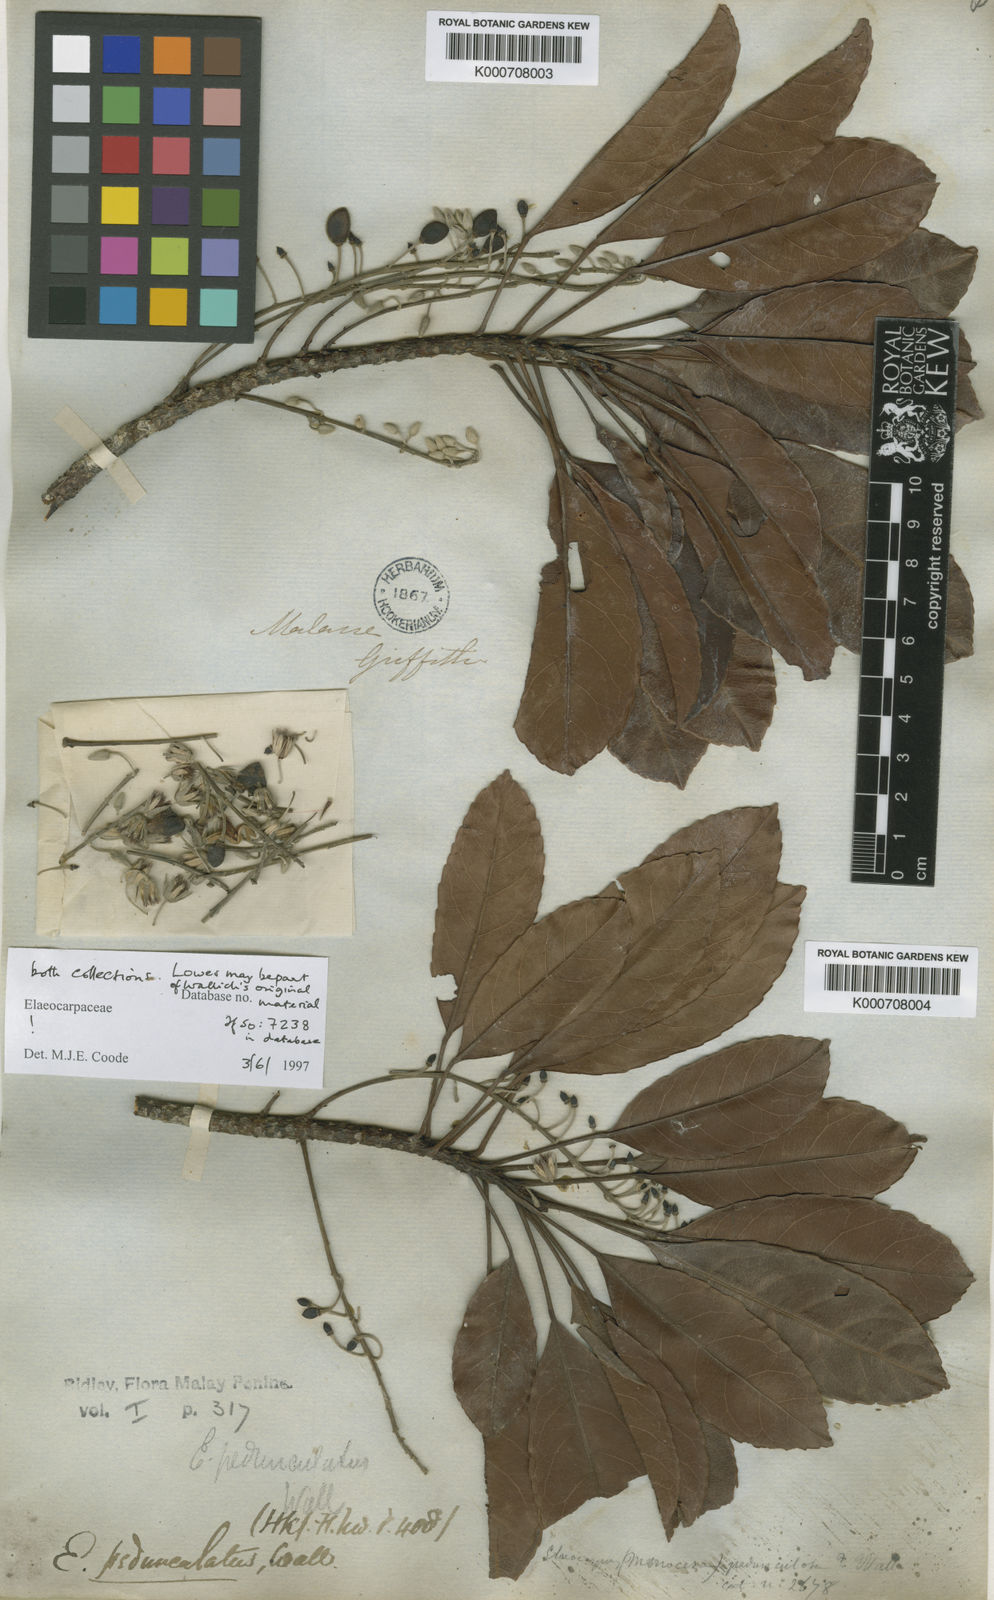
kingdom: Plantae
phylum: Tracheophyta
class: Magnoliopsida
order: Oxalidales
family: Elaeocarpaceae
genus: Elaeocarpus
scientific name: Elaeocarpus
